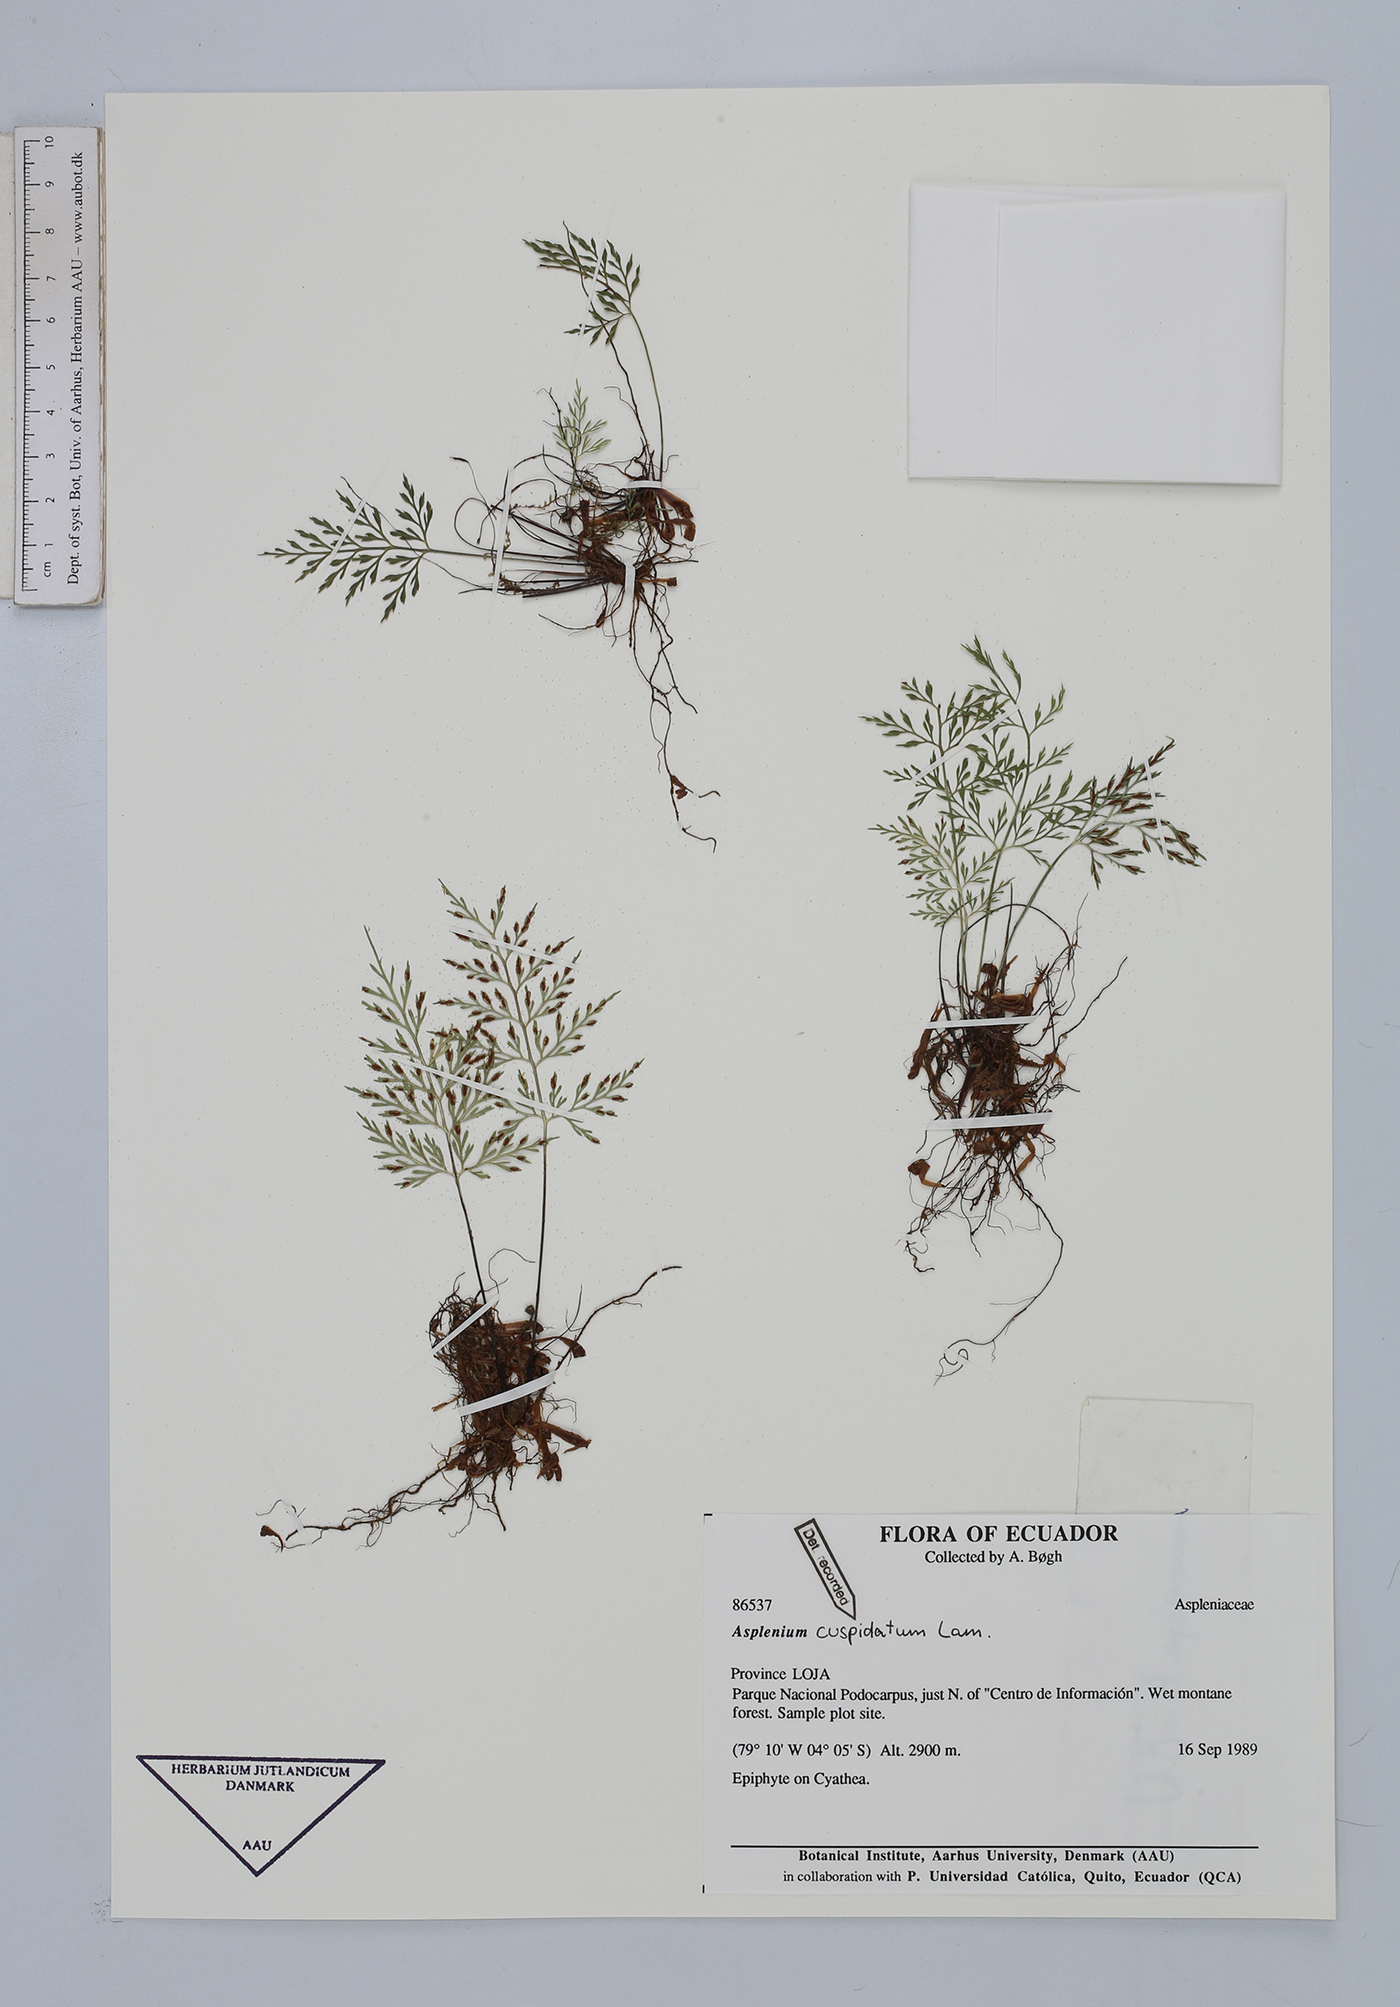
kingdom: Plantae
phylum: Tracheophyta
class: Polypodiopsida
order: Polypodiales
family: Aspleniaceae
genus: Asplenium
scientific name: Asplenium cuspidatum
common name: Eared spleenwort
